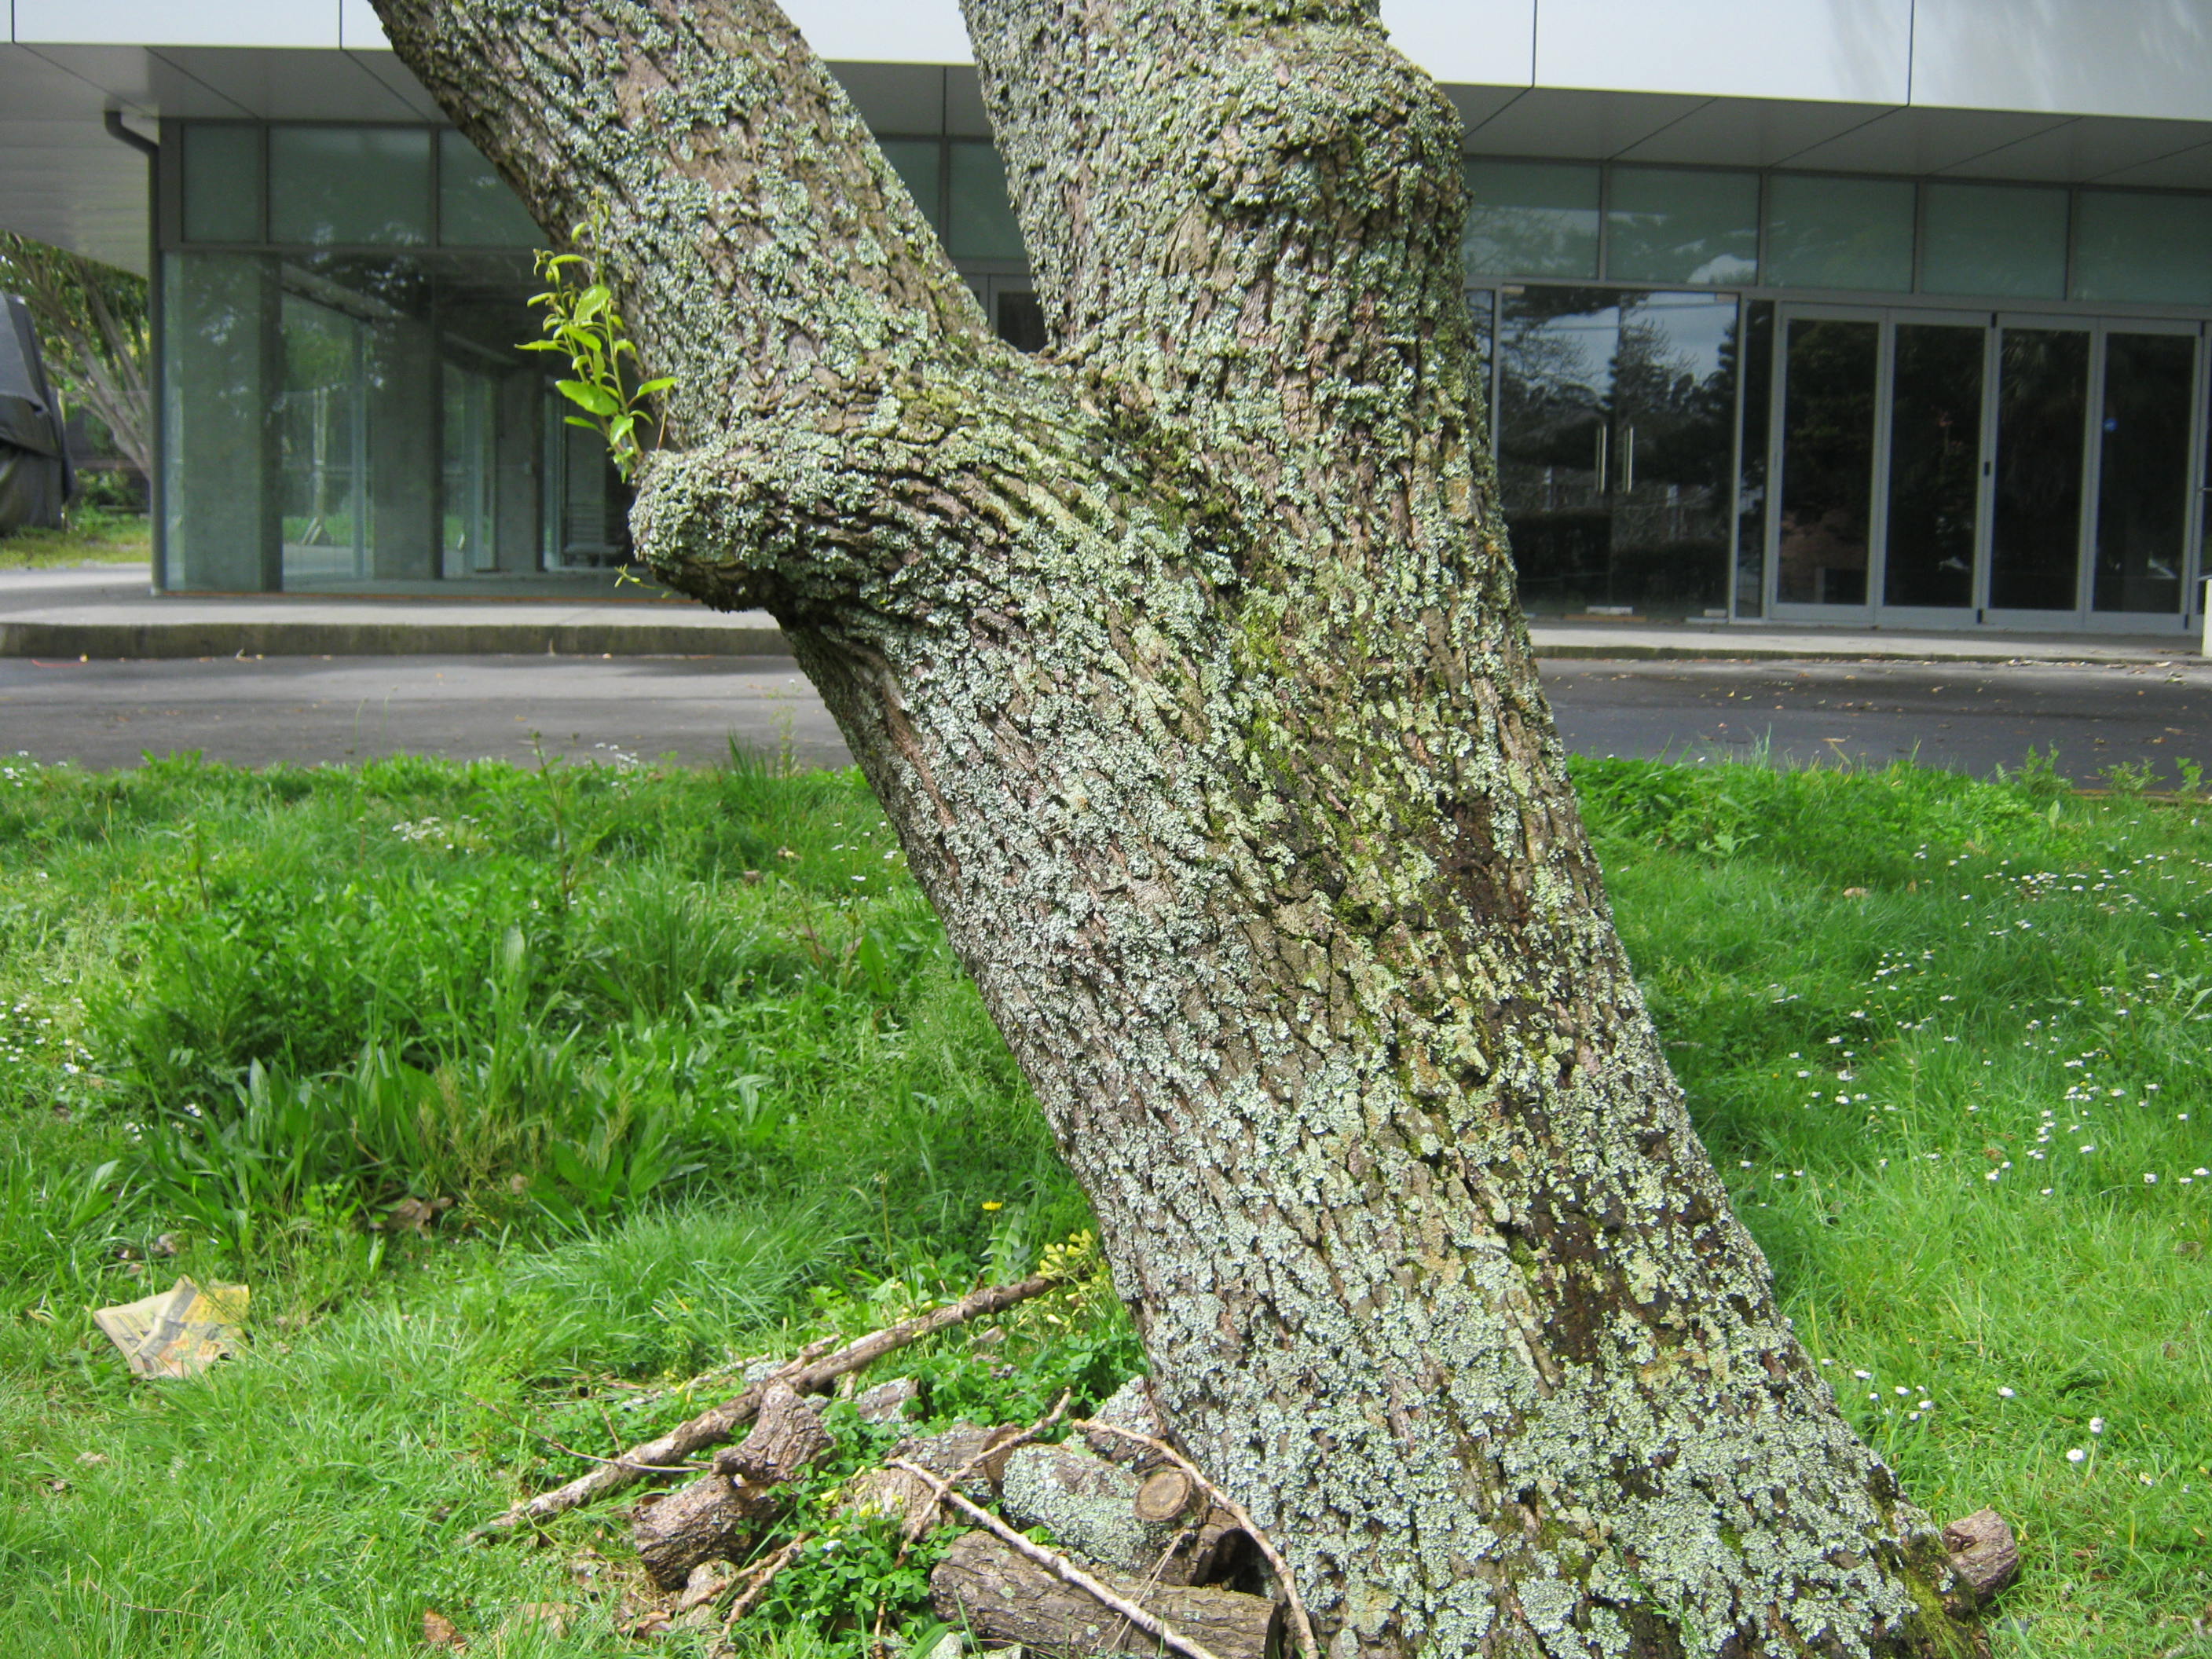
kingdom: Plantae
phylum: Tracheophyta
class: Magnoliopsida
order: Fagales
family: Fagaceae
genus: Quercus
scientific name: Quercus acutissima
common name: Sawtooth oak
